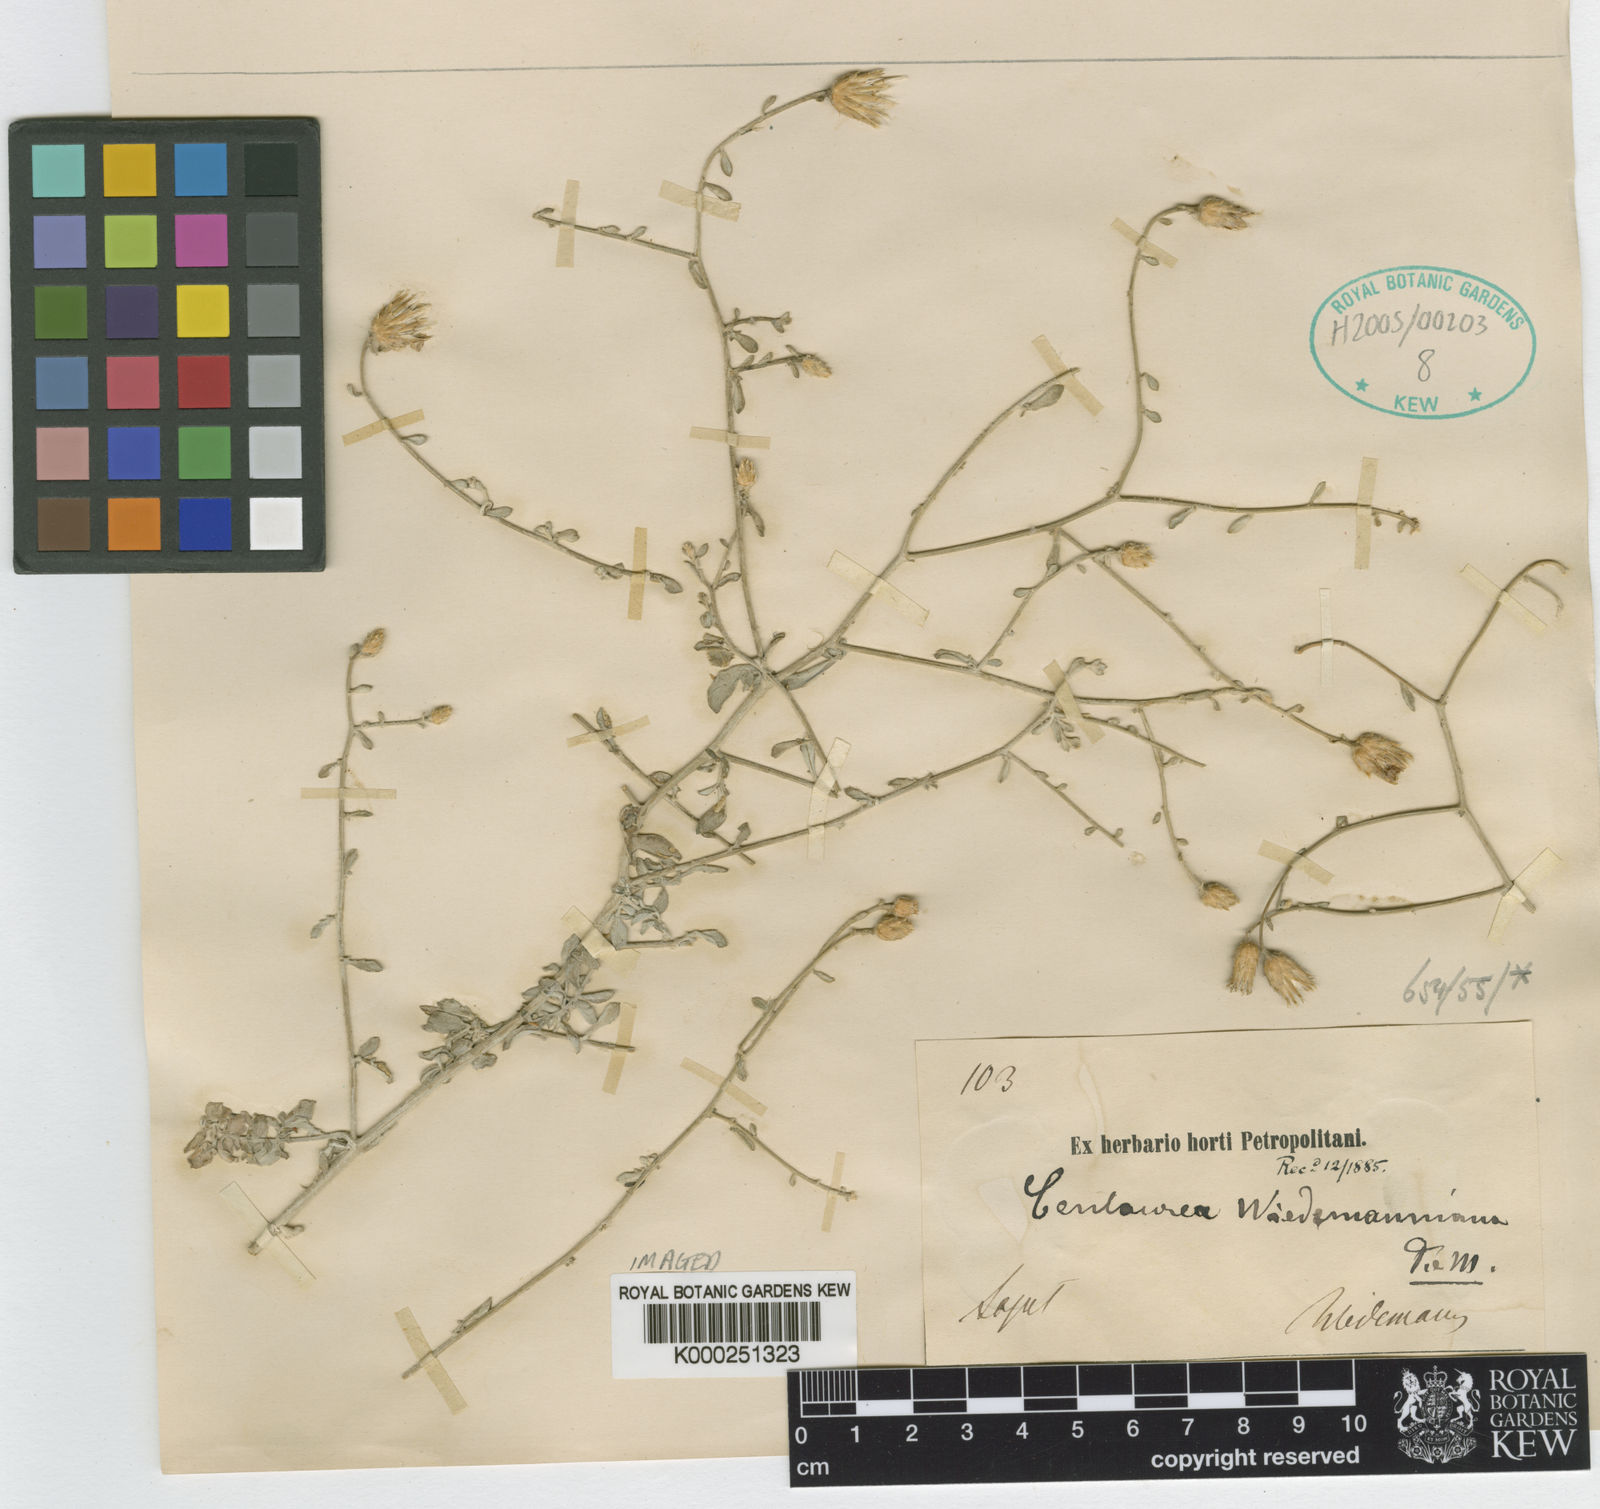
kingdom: Plantae
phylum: Tracheophyta
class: Magnoliopsida
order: Asterales
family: Asteraceae
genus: Centaurea
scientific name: Centaurea wiedemanniana
